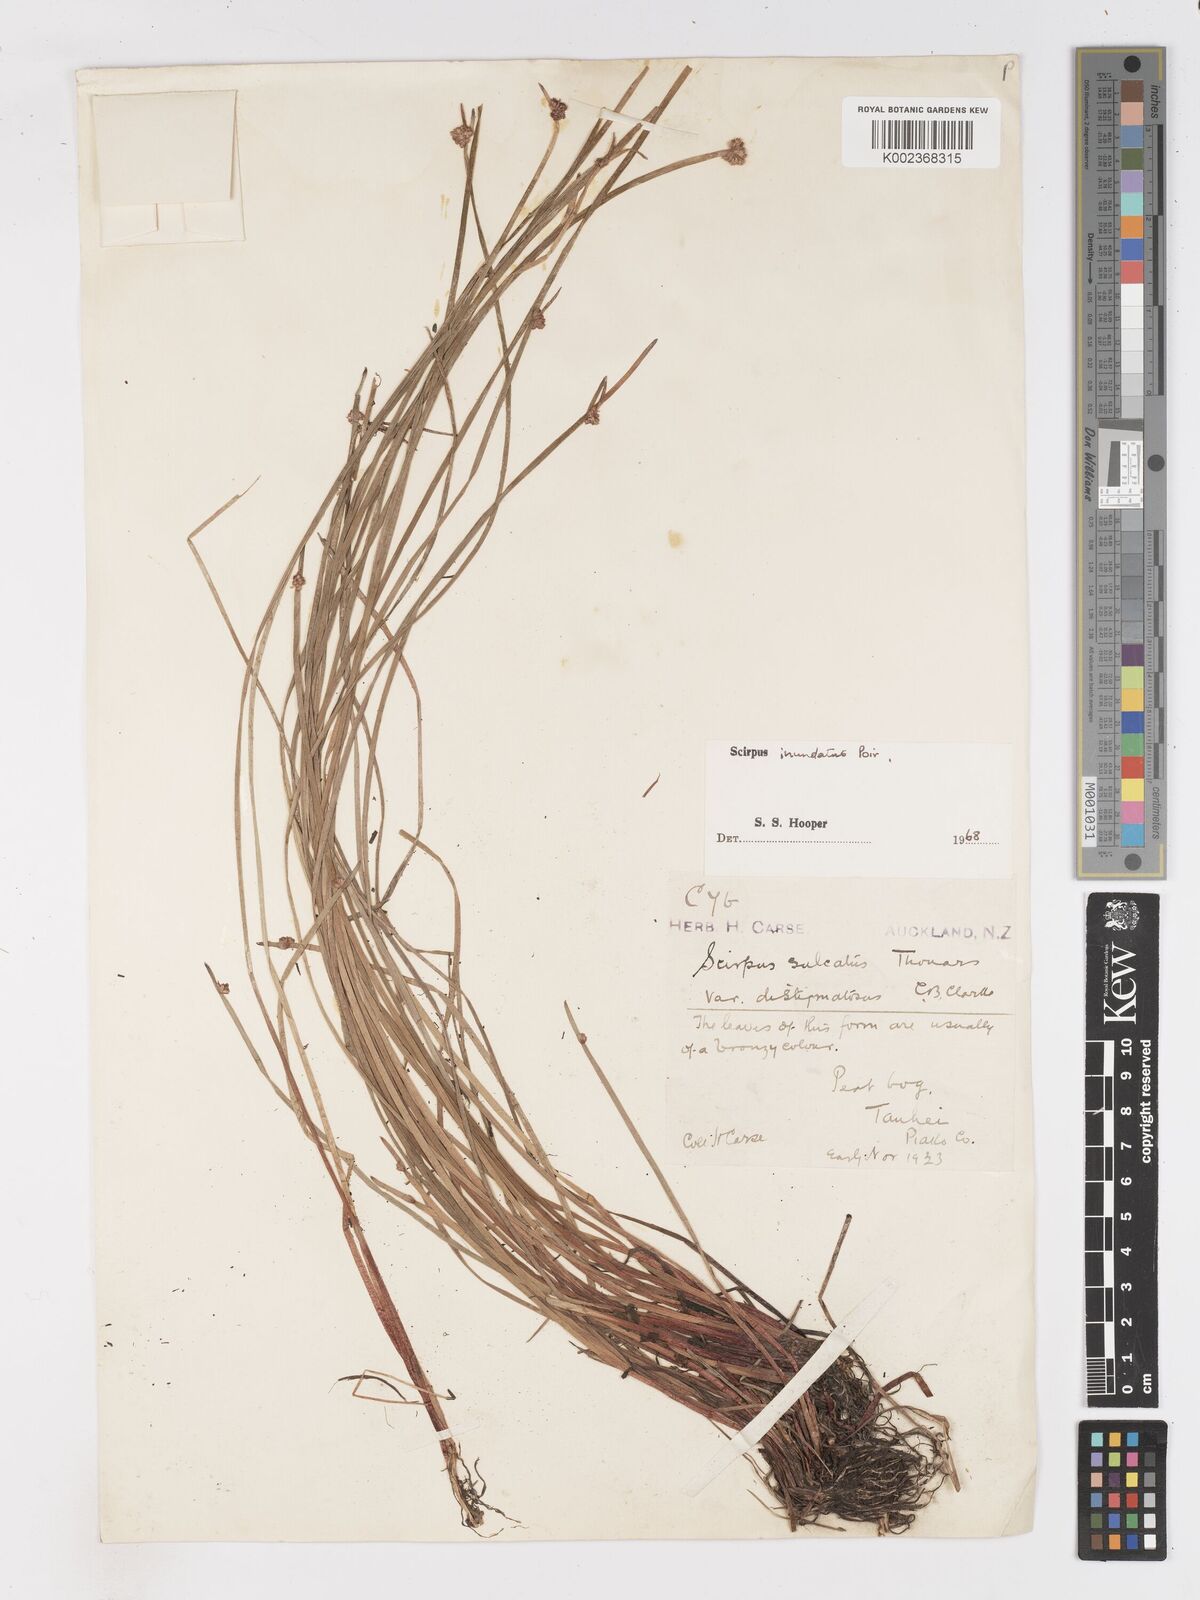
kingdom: Plantae
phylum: Tracheophyta
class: Liliopsida
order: Poales
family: Cyperaceae
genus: Isolepis
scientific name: Isolepis sulcata
